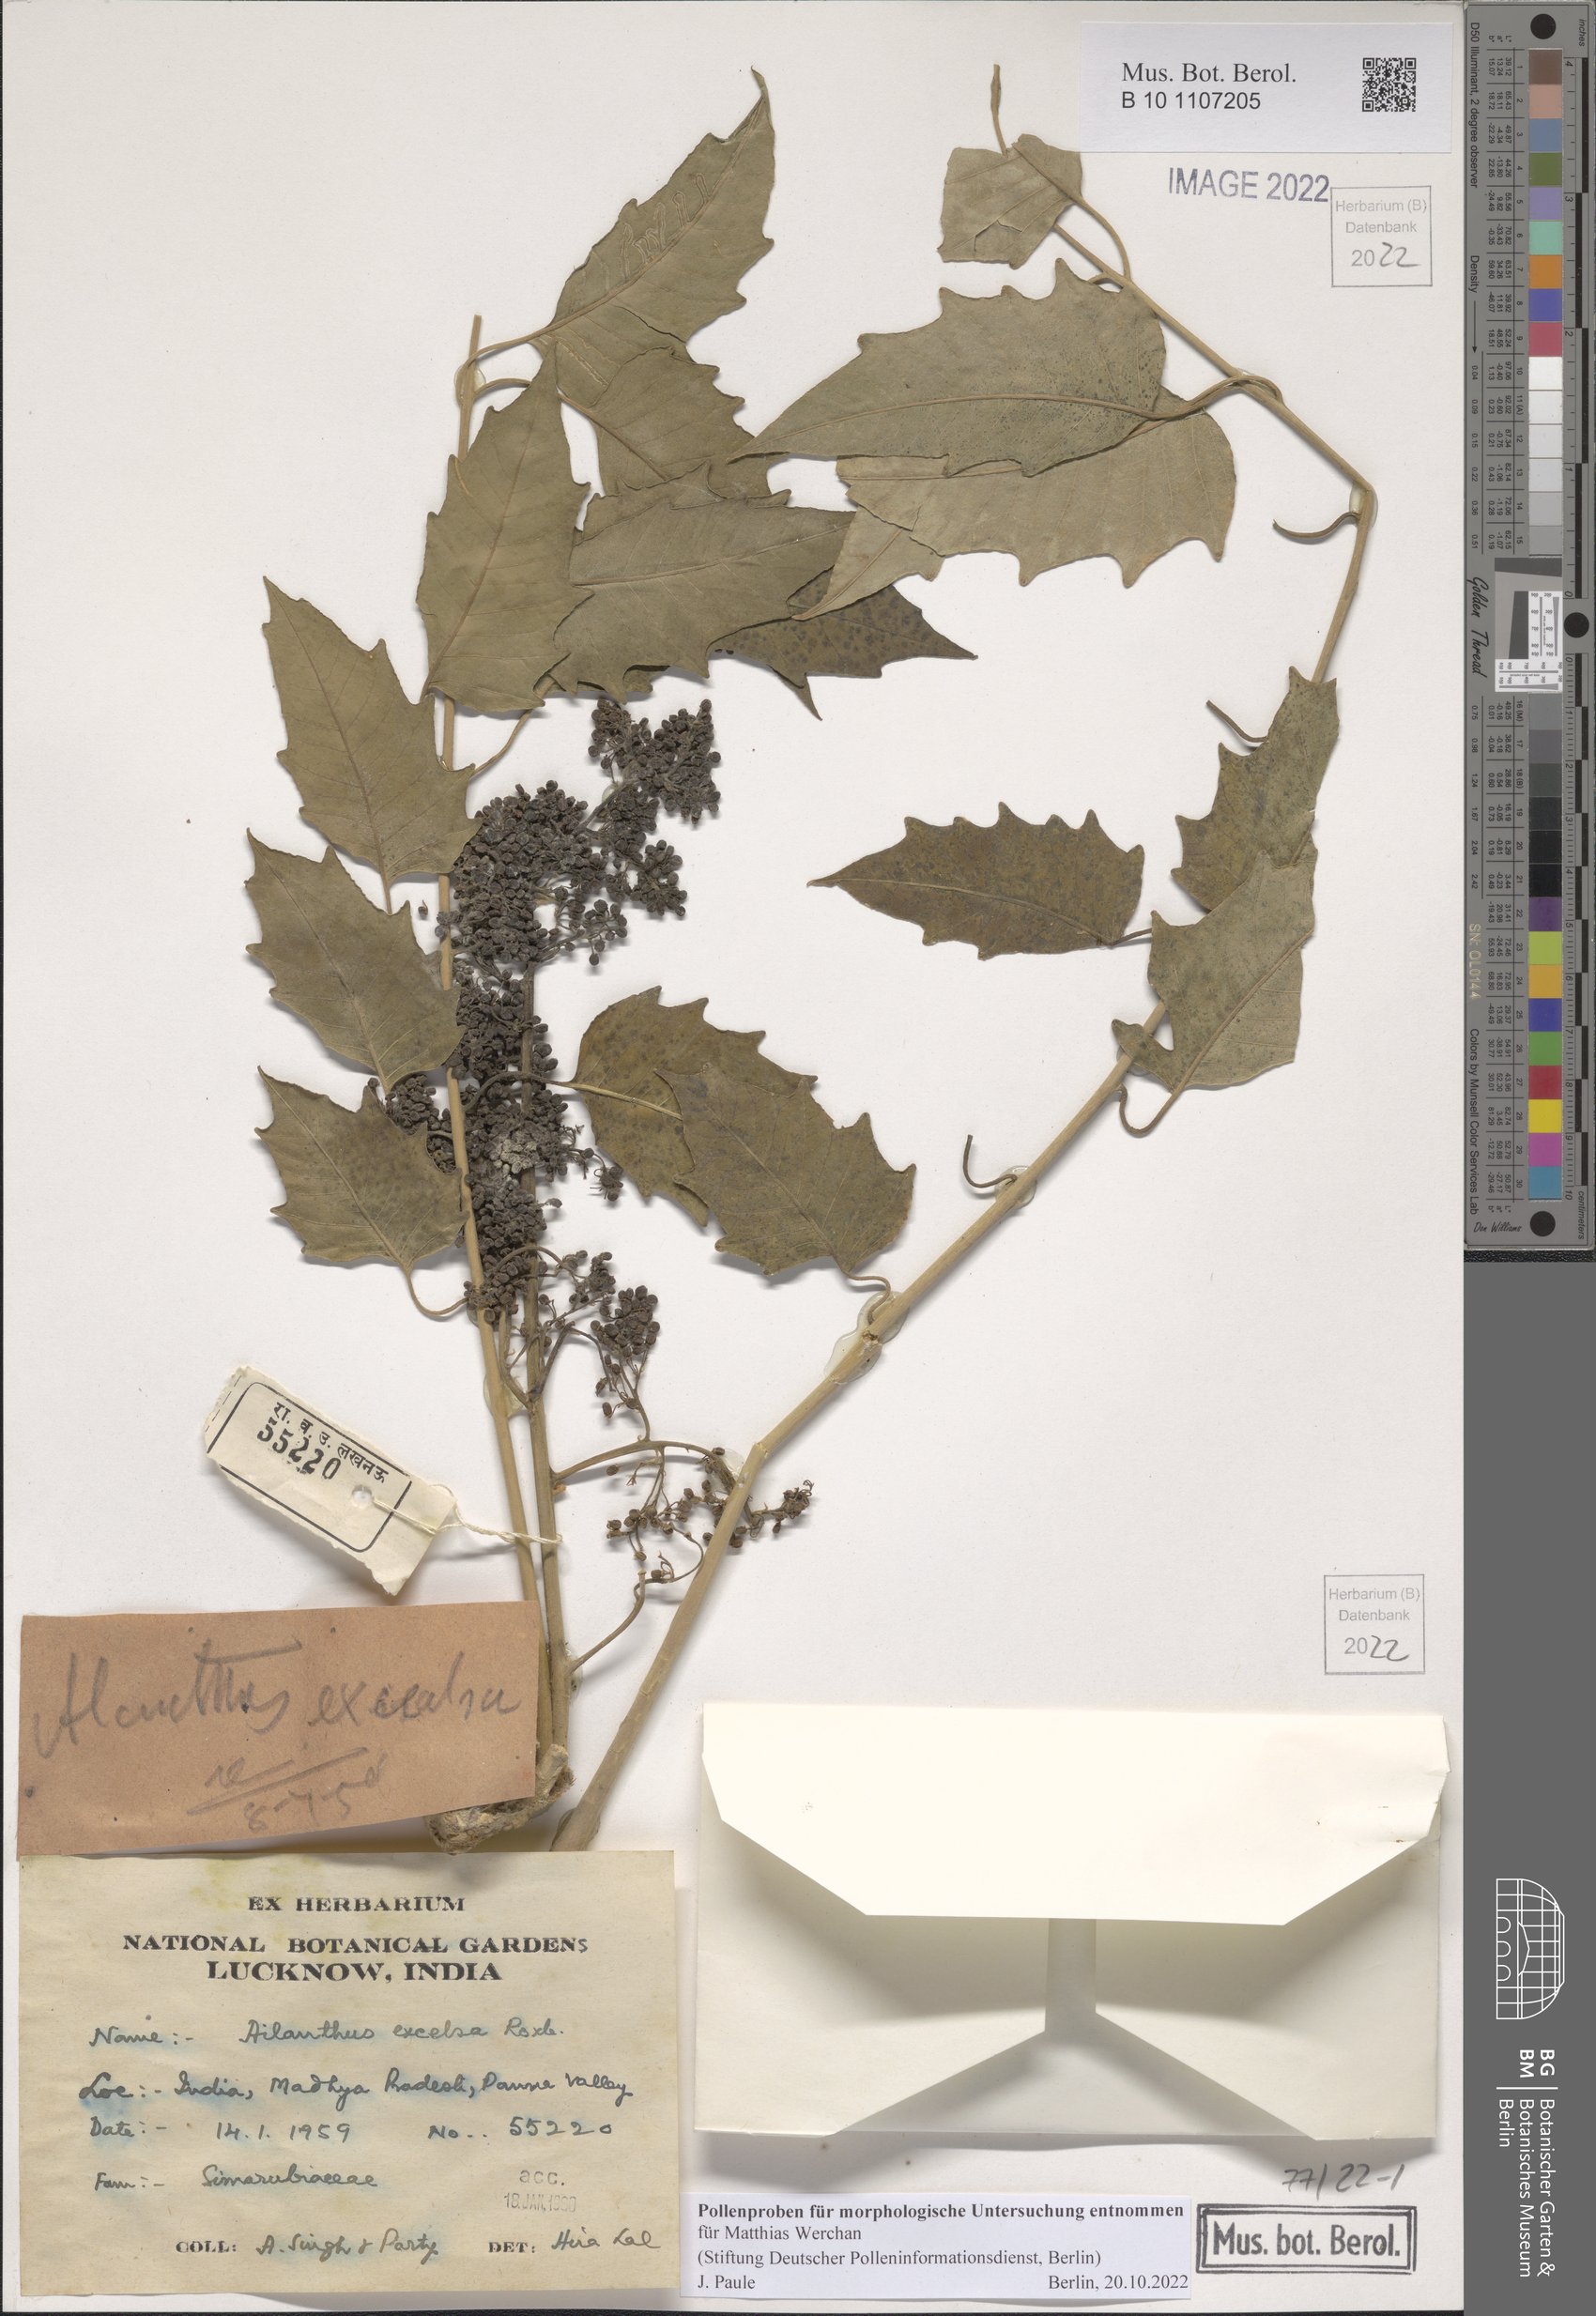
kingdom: Plantae
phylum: Tracheophyta
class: Magnoliopsida
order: Sapindales
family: Simaroubaceae
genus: Ailanthus
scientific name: Ailanthus excelsa
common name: Indian tree-of-heaven
